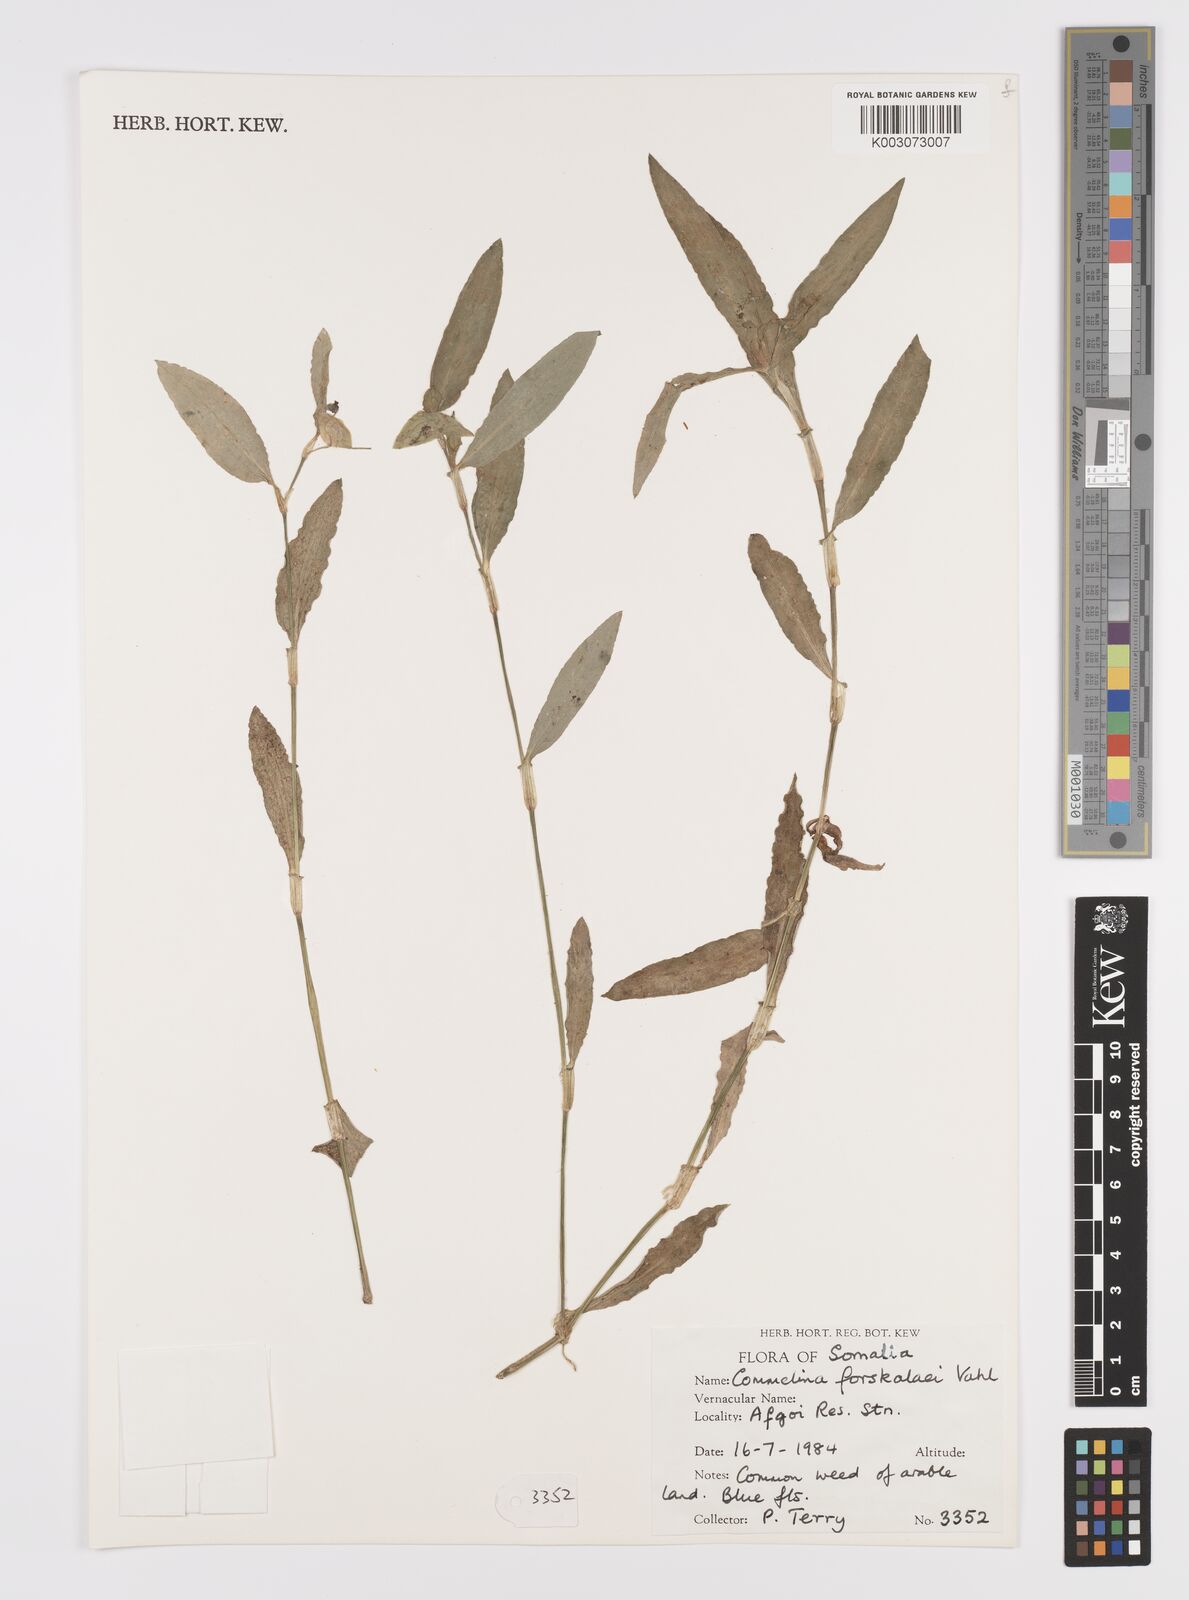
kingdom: Plantae
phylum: Tracheophyta
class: Liliopsida
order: Commelinales
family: Commelinaceae
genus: Commelina
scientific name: Commelina forskaolii
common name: Rat's ear
